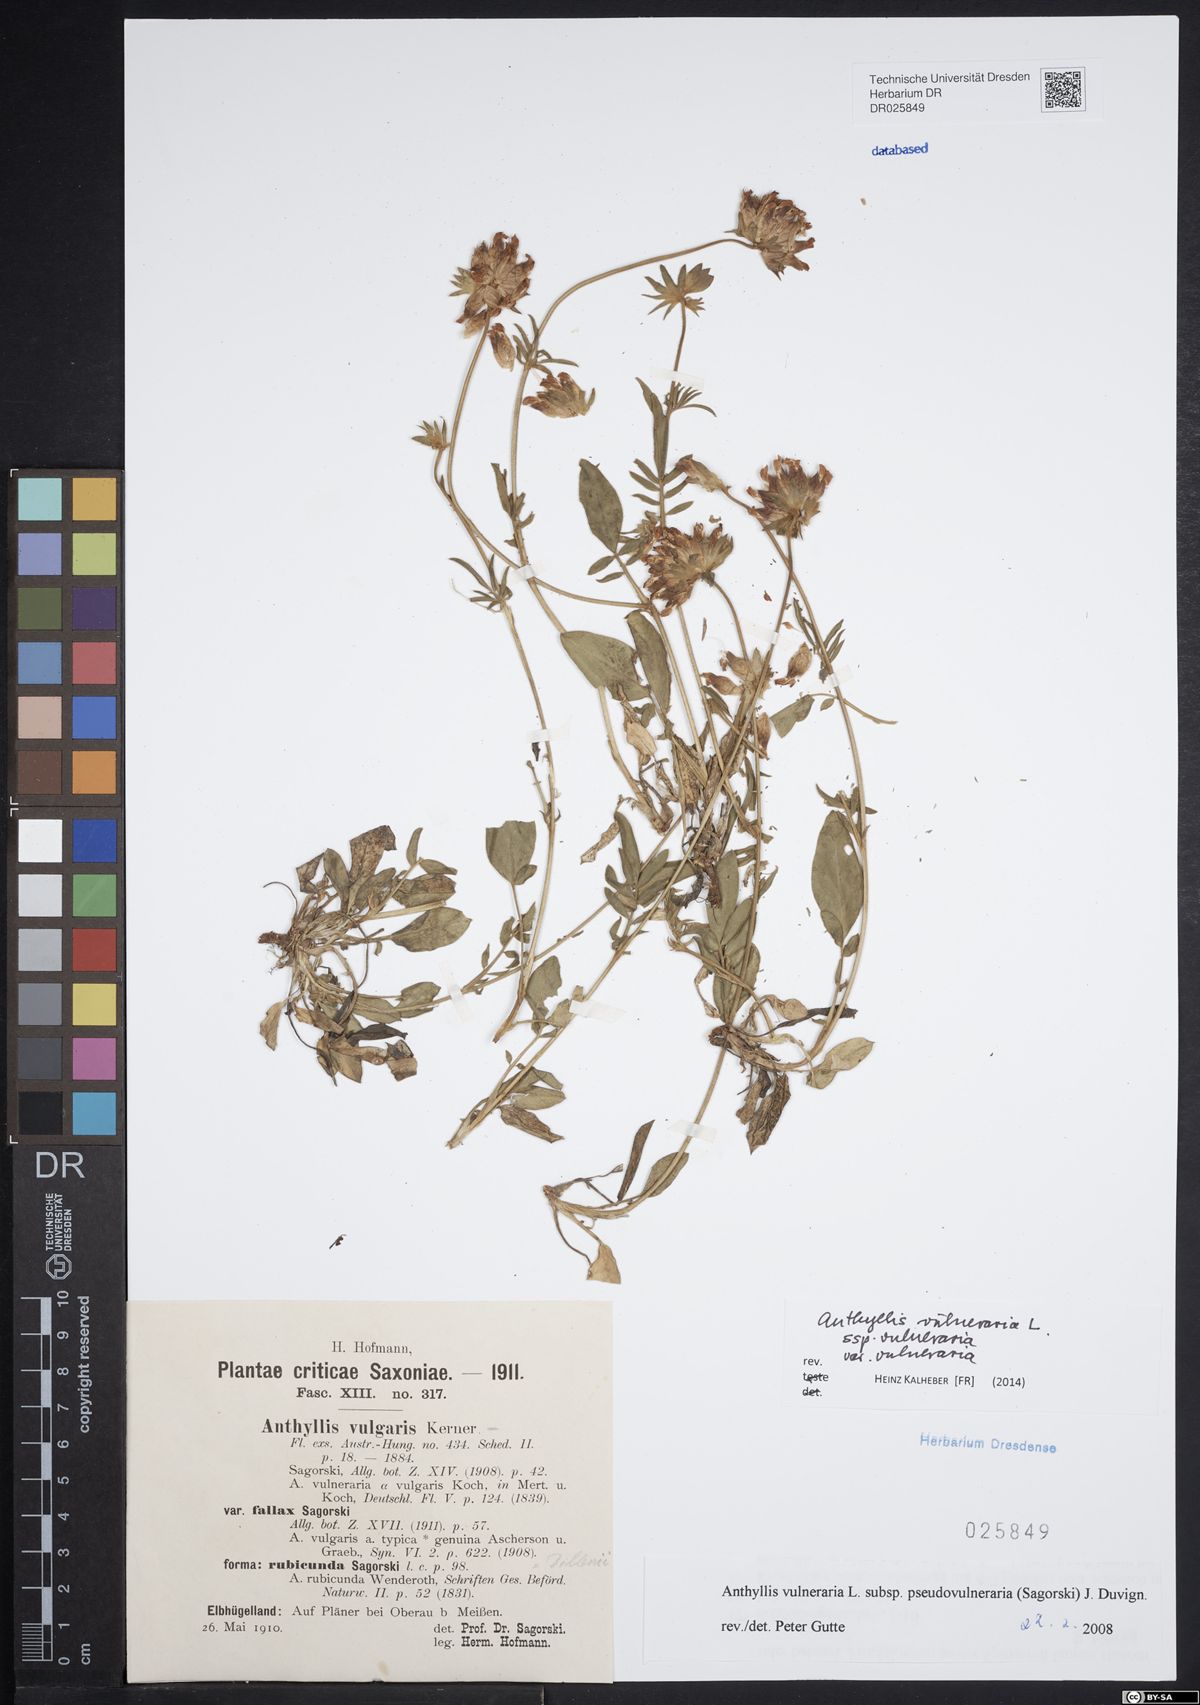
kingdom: Plantae
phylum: Tracheophyta
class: Magnoliopsida
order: Fabales
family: Fabaceae
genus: Anthyllis
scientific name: Anthyllis vulneraria
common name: Kidney vetch
